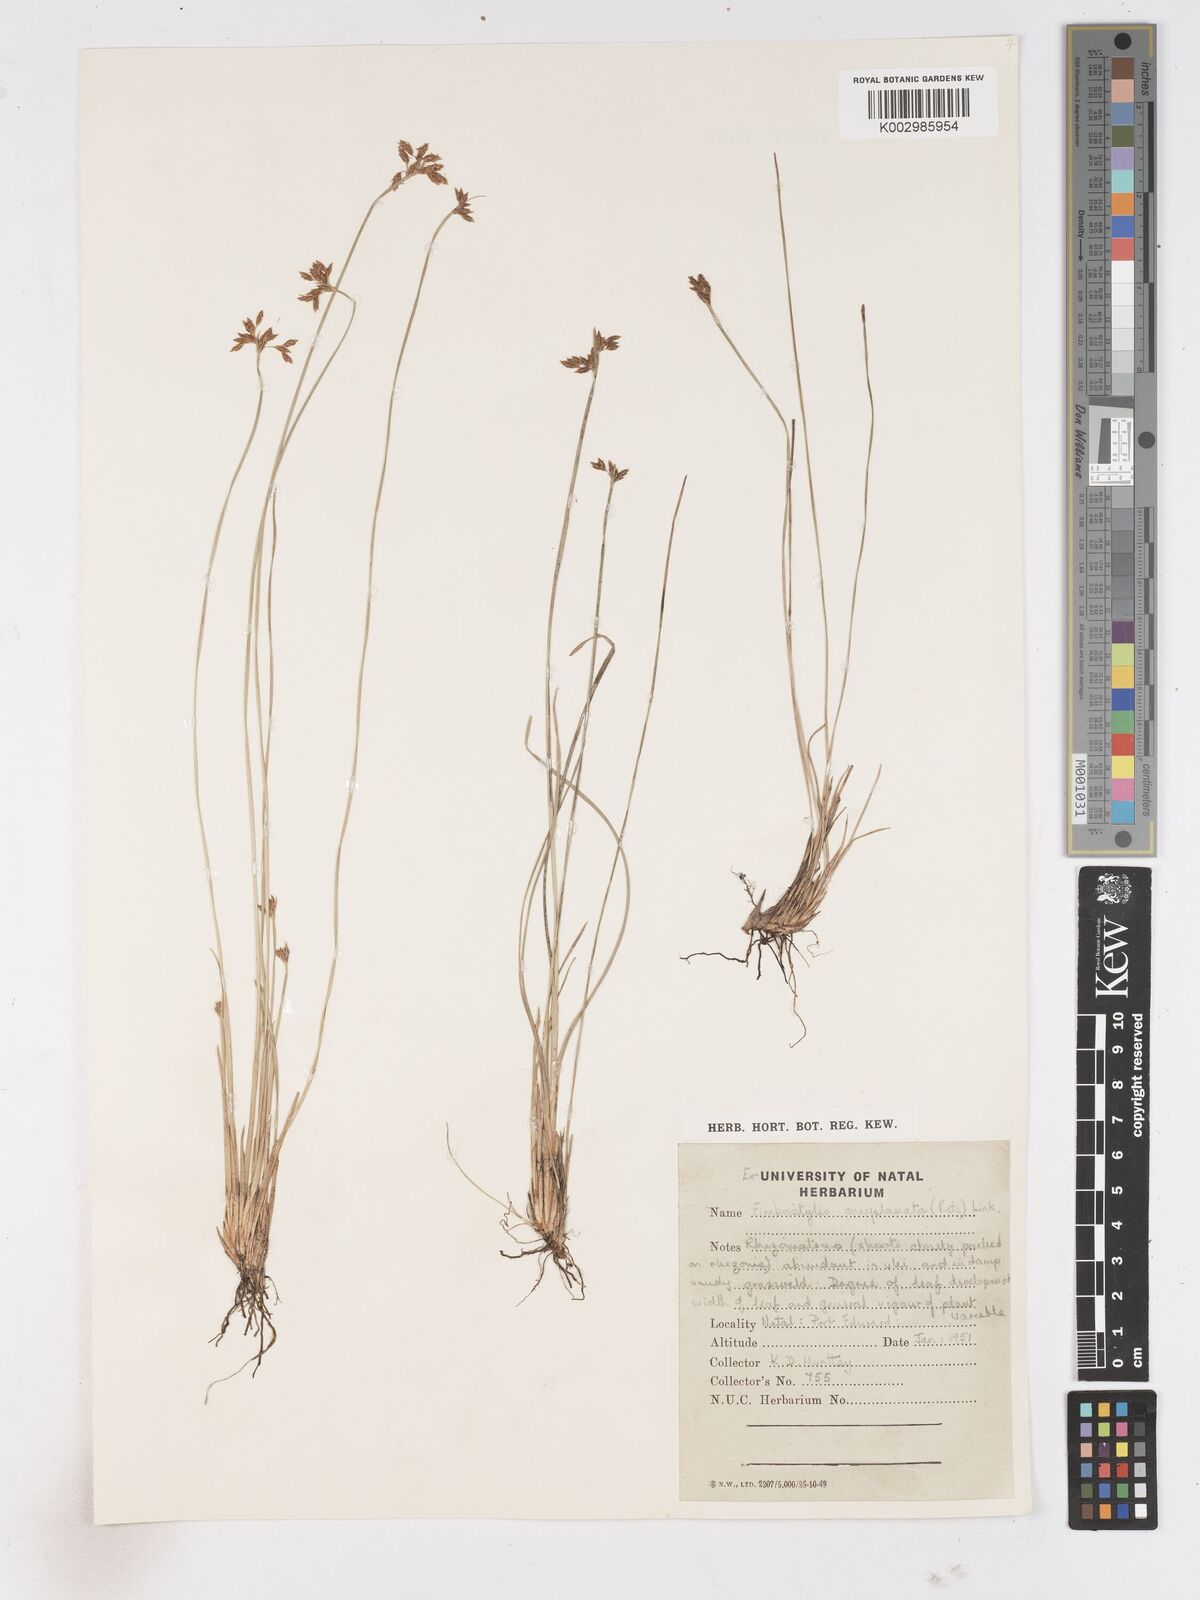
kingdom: Plantae
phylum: Tracheophyta
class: Liliopsida
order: Poales
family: Cyperaceae
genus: Fimbristylis
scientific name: Fimbristylis complanata
